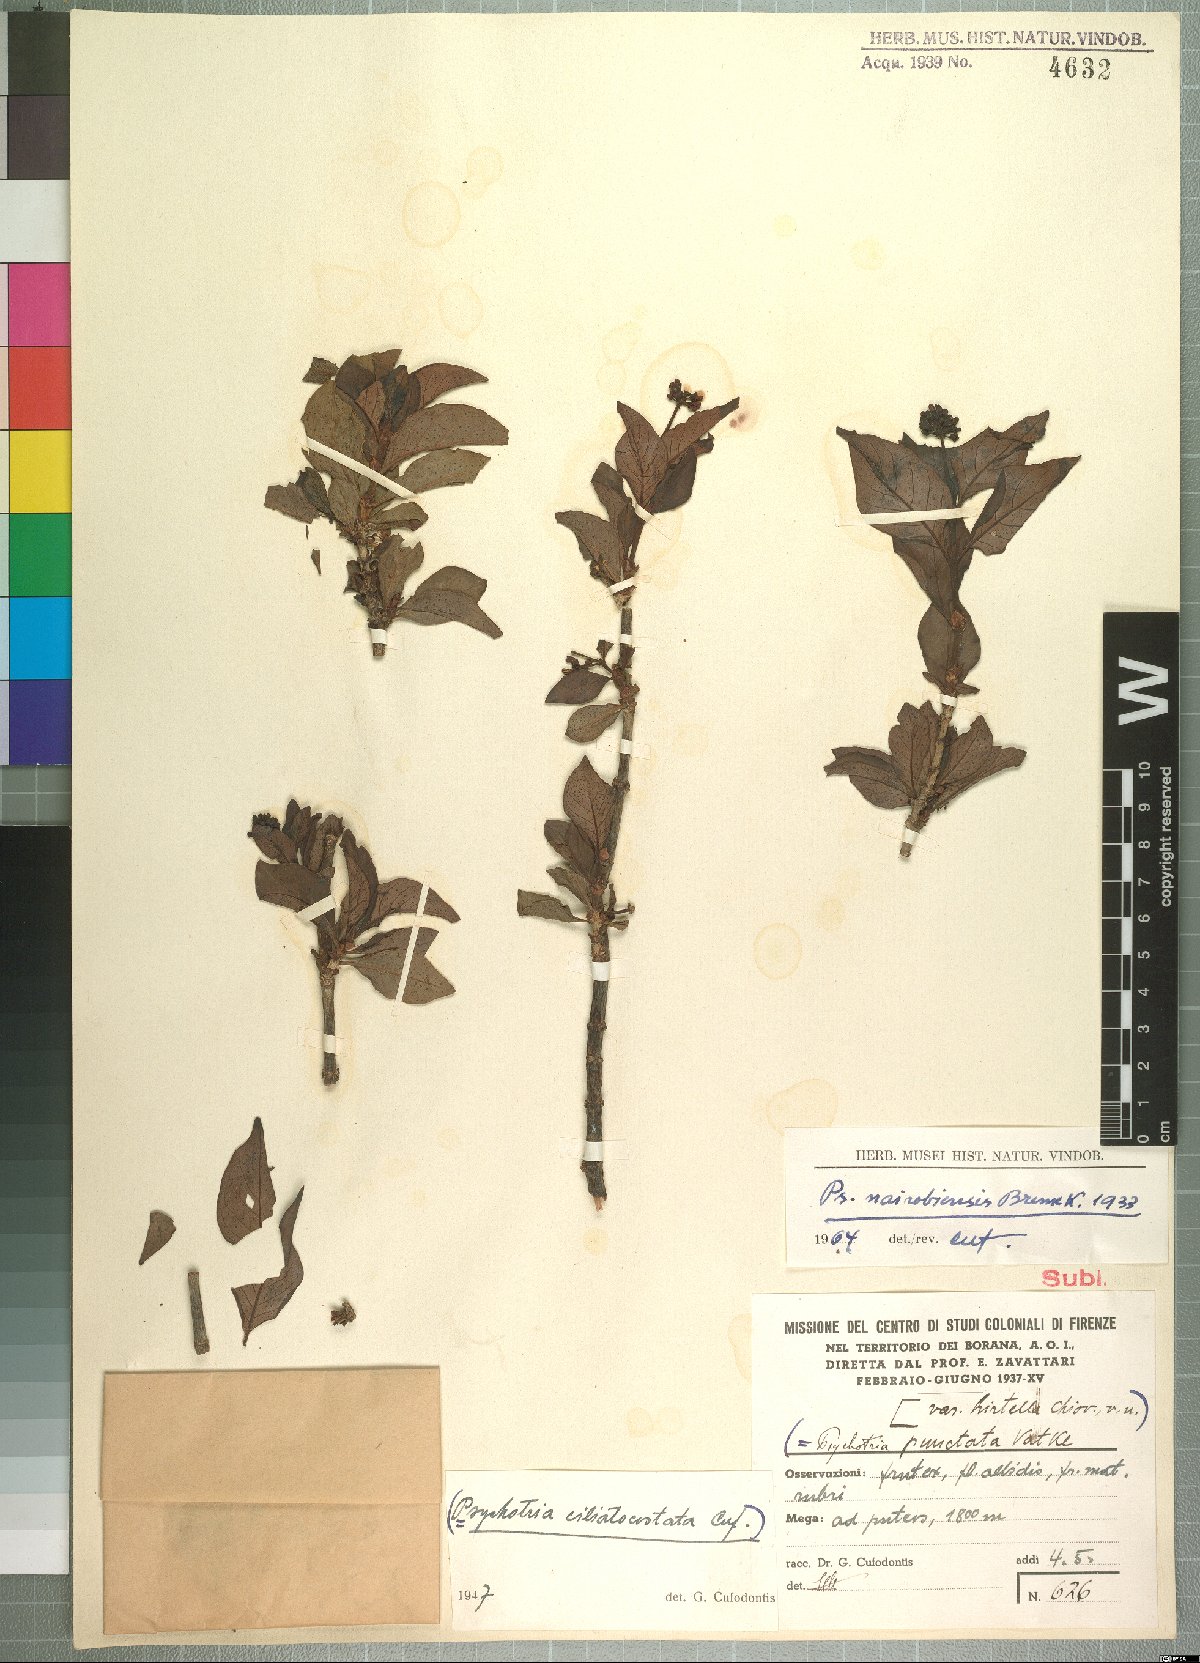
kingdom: Plantae
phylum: Tracheophyta
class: Magnoliopsida
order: Gentianales
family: Rubiaceae
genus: Psychotria
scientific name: Psychotria punctata
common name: Dotted wild coffee
